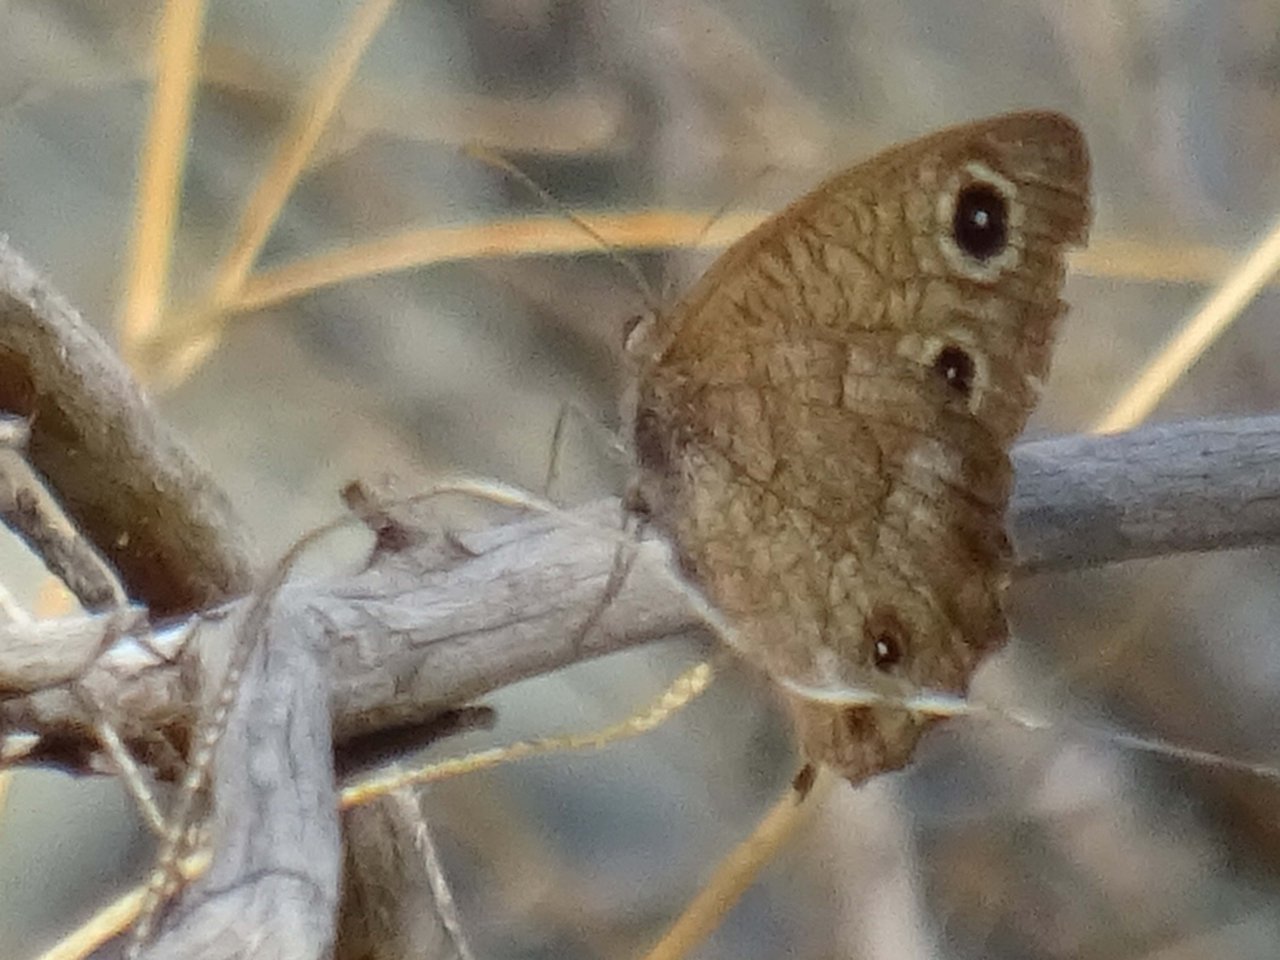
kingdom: Animalia
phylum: Arthropoda
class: Insecta
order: Lepidoptera
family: Nymphalidae
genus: Cercyonis
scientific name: Cercyonis sthenele
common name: Great Basin Wood-Nymph
